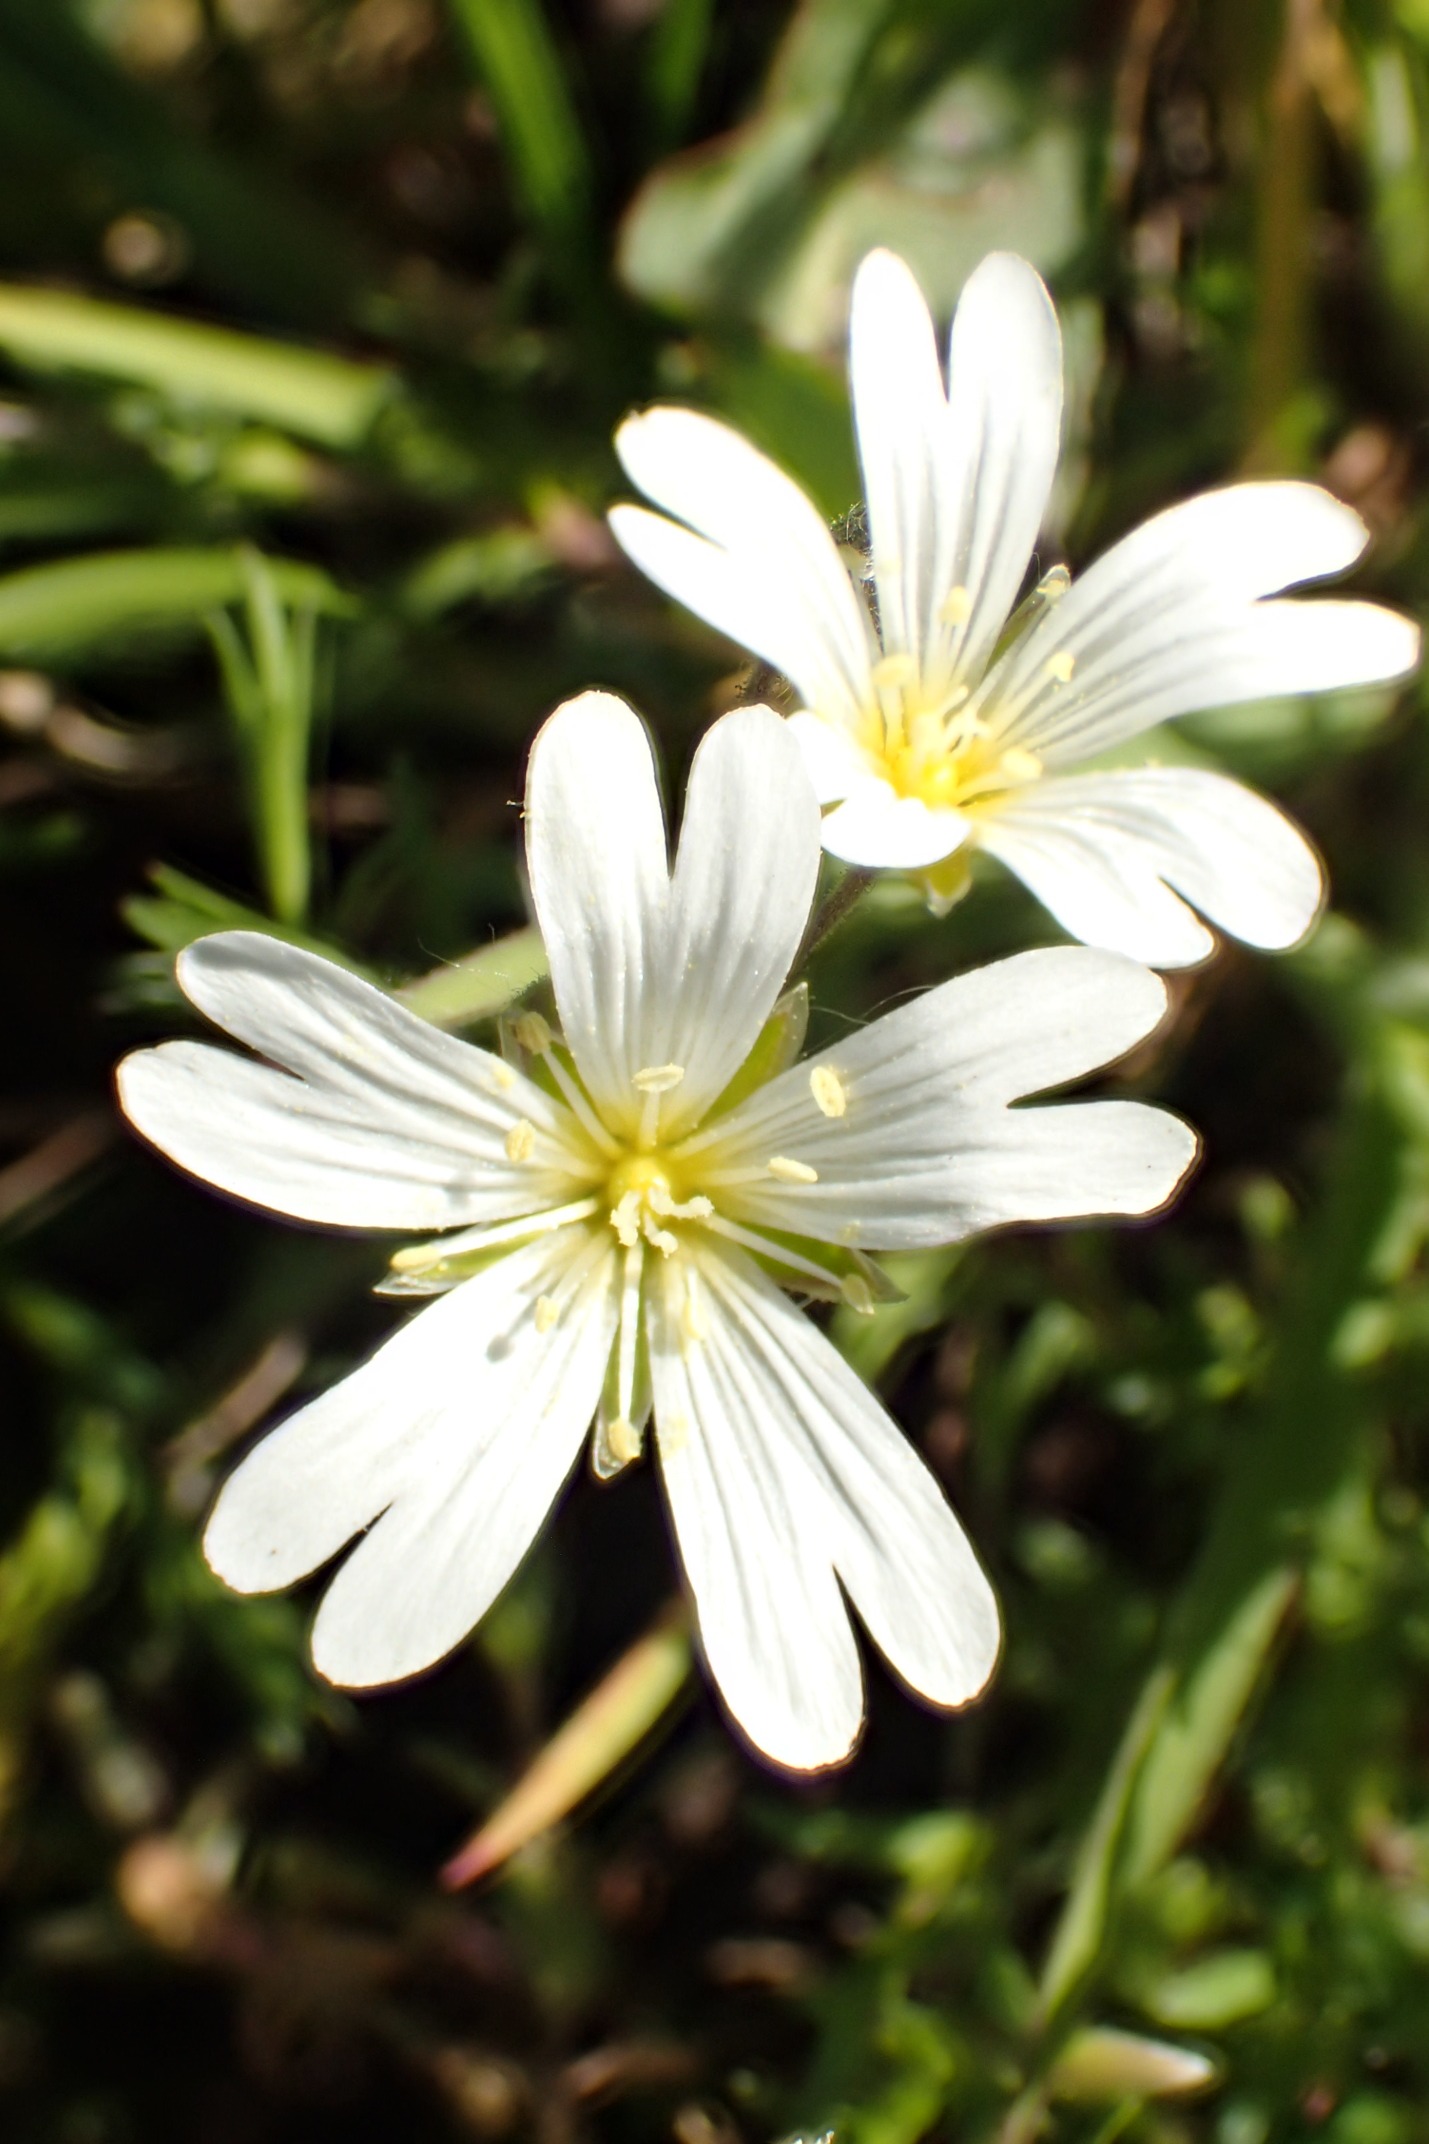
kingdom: Plantae
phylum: Tracheophyta
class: Magnoliopsida
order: Caryophyllales
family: Caryophyllaceae
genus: Cerastium
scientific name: Cerastium arvense
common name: Storblomstret hønsetarm
